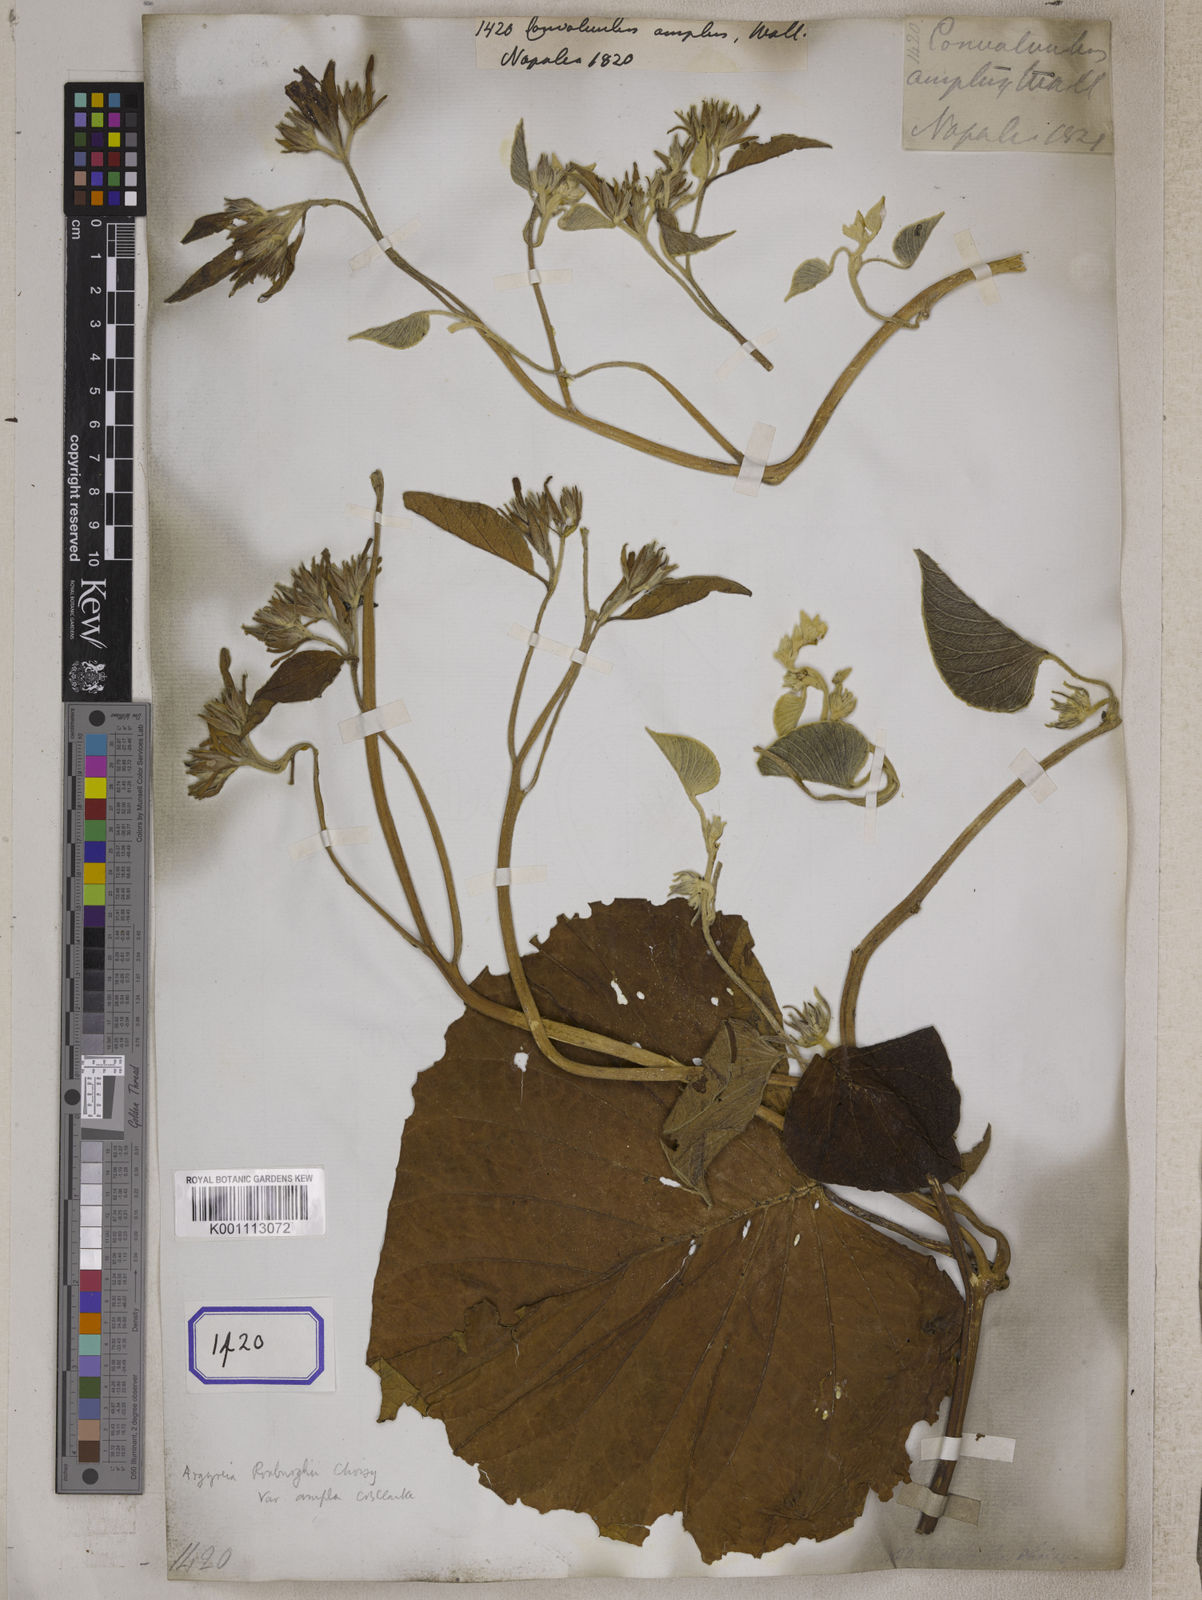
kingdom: Plantae
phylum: Tracheophyta
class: Magnoliopsida
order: Solanales
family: Convolvulaceae
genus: Convolvulus
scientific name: Convolvulus
